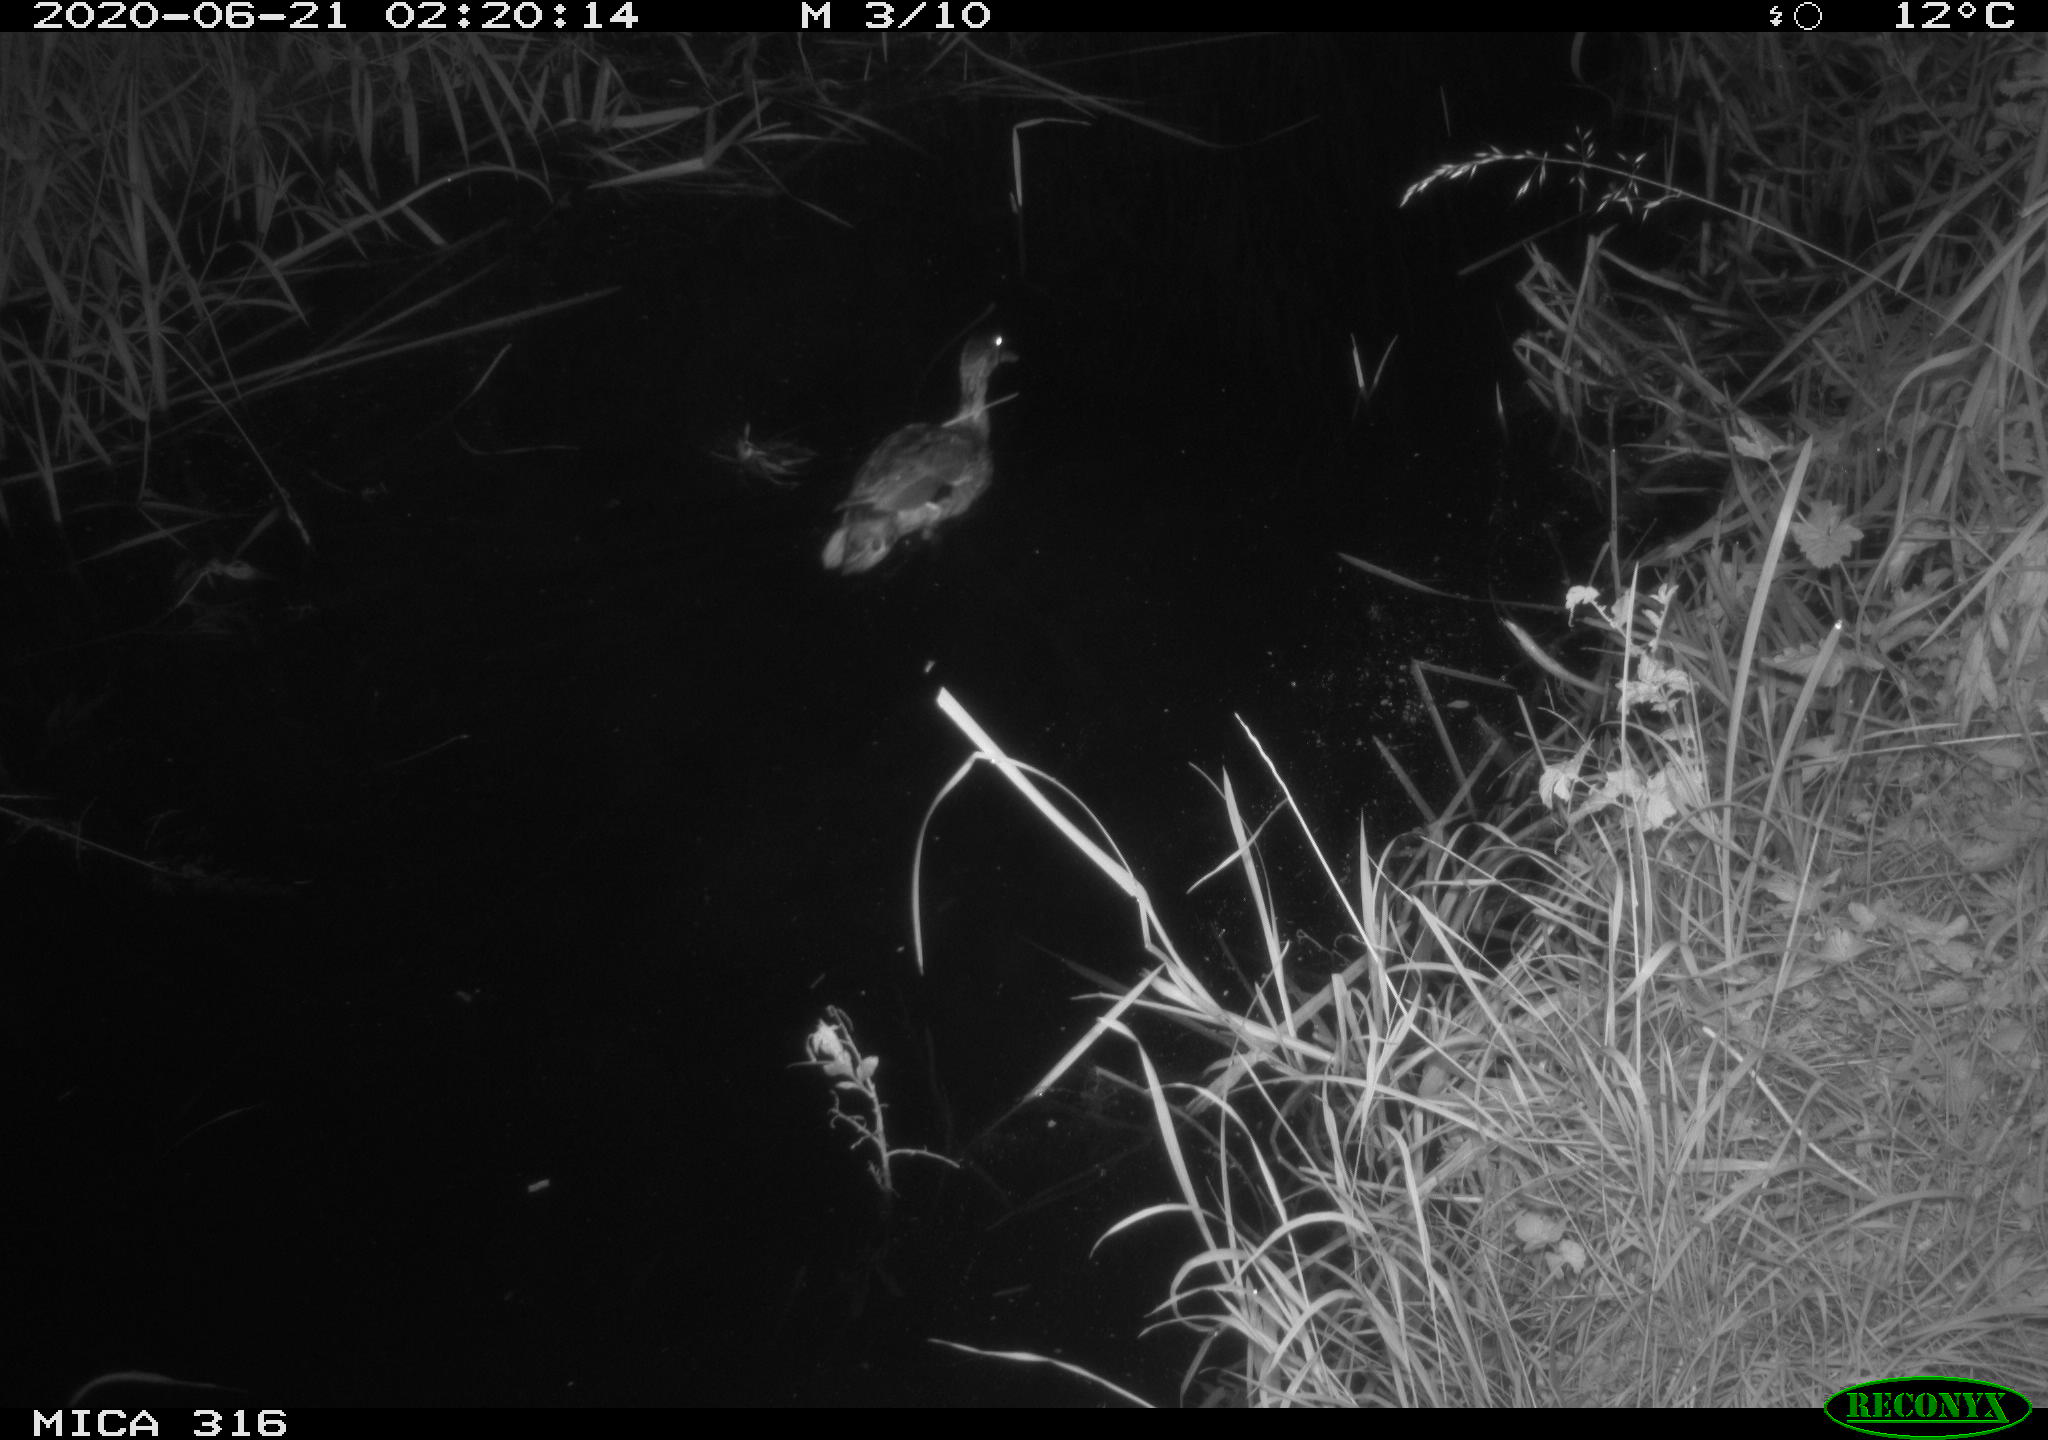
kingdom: Animalia
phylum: Chordata
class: Aves
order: Anseriformes
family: Anatidae
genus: Anas
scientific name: Anas platyrhynchos
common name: Mallard
